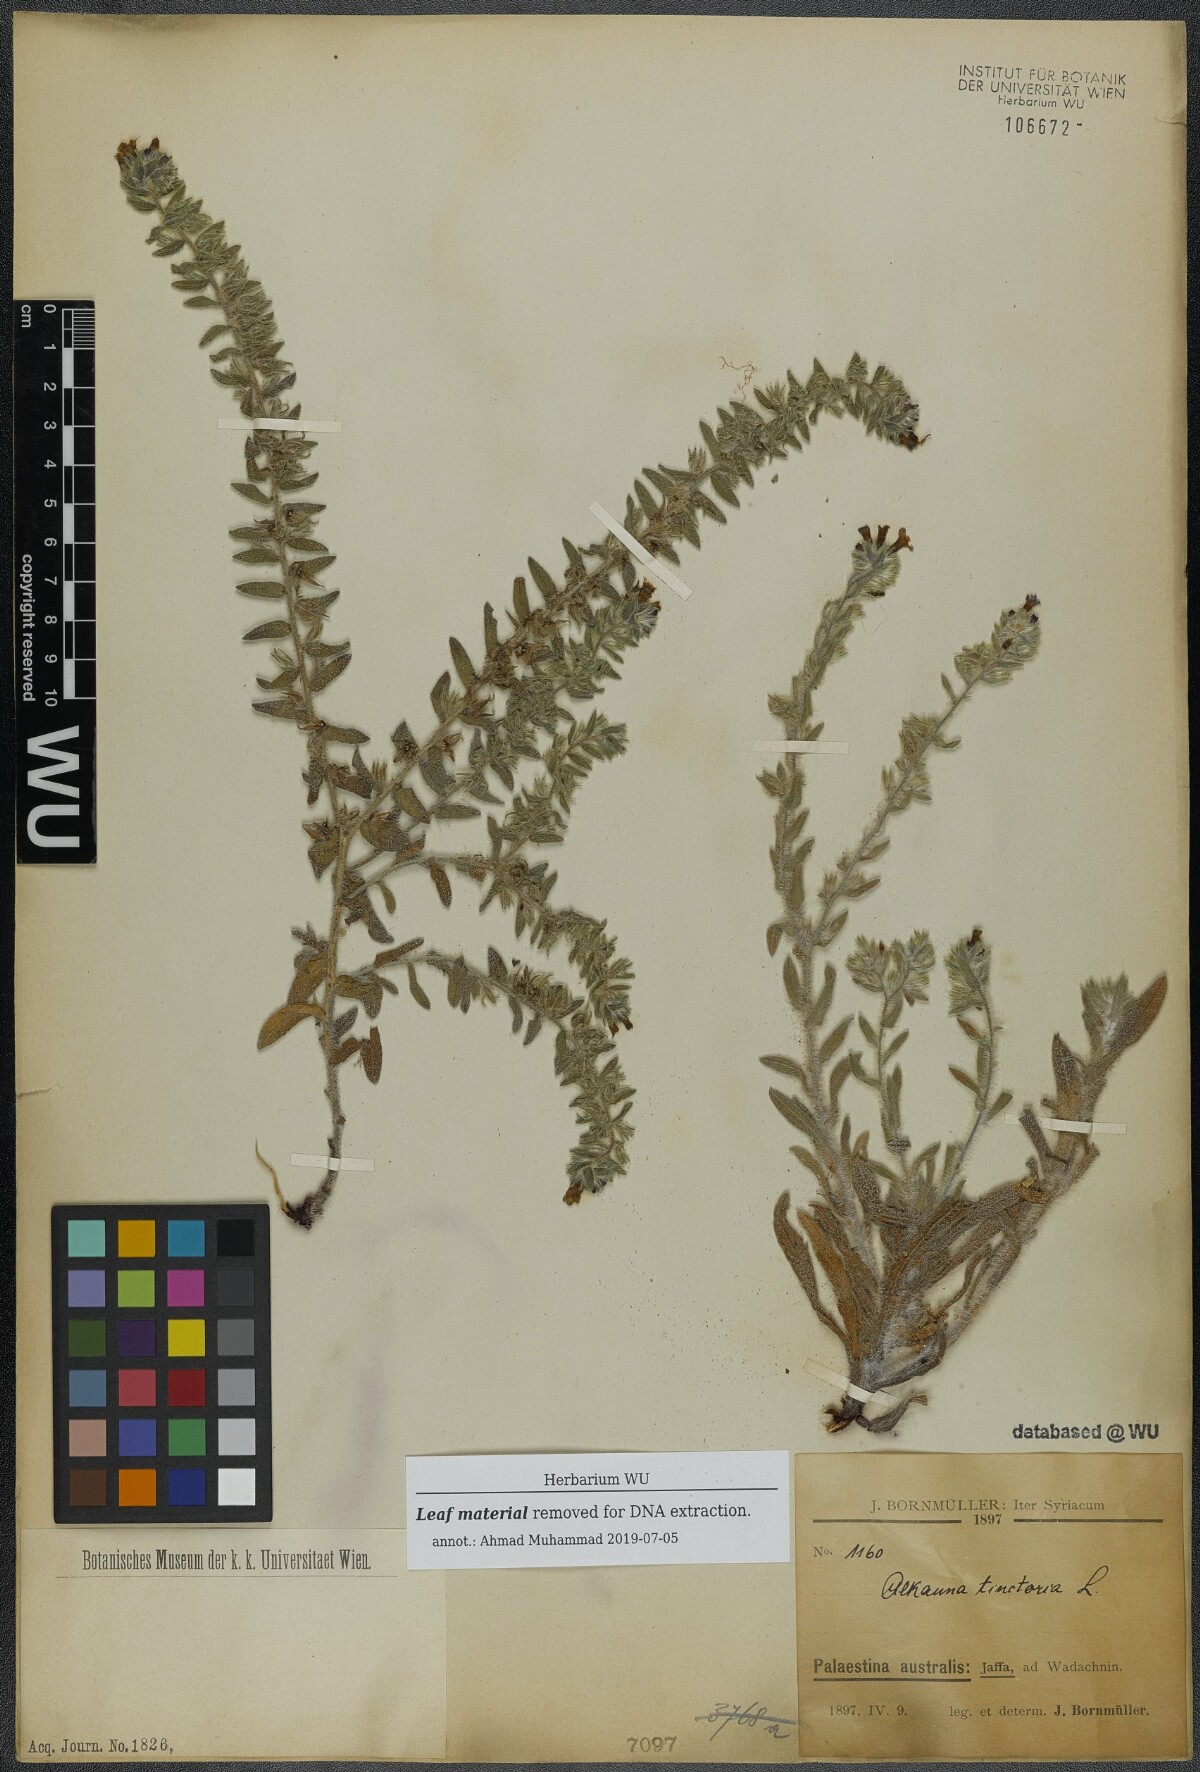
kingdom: Plantae
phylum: Tracheophyta
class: Magnoliopsida
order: Boraginales
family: Boraginaceae
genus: Alkanna
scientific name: Alkanna tinctoria
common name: Dyer's-alkanet
